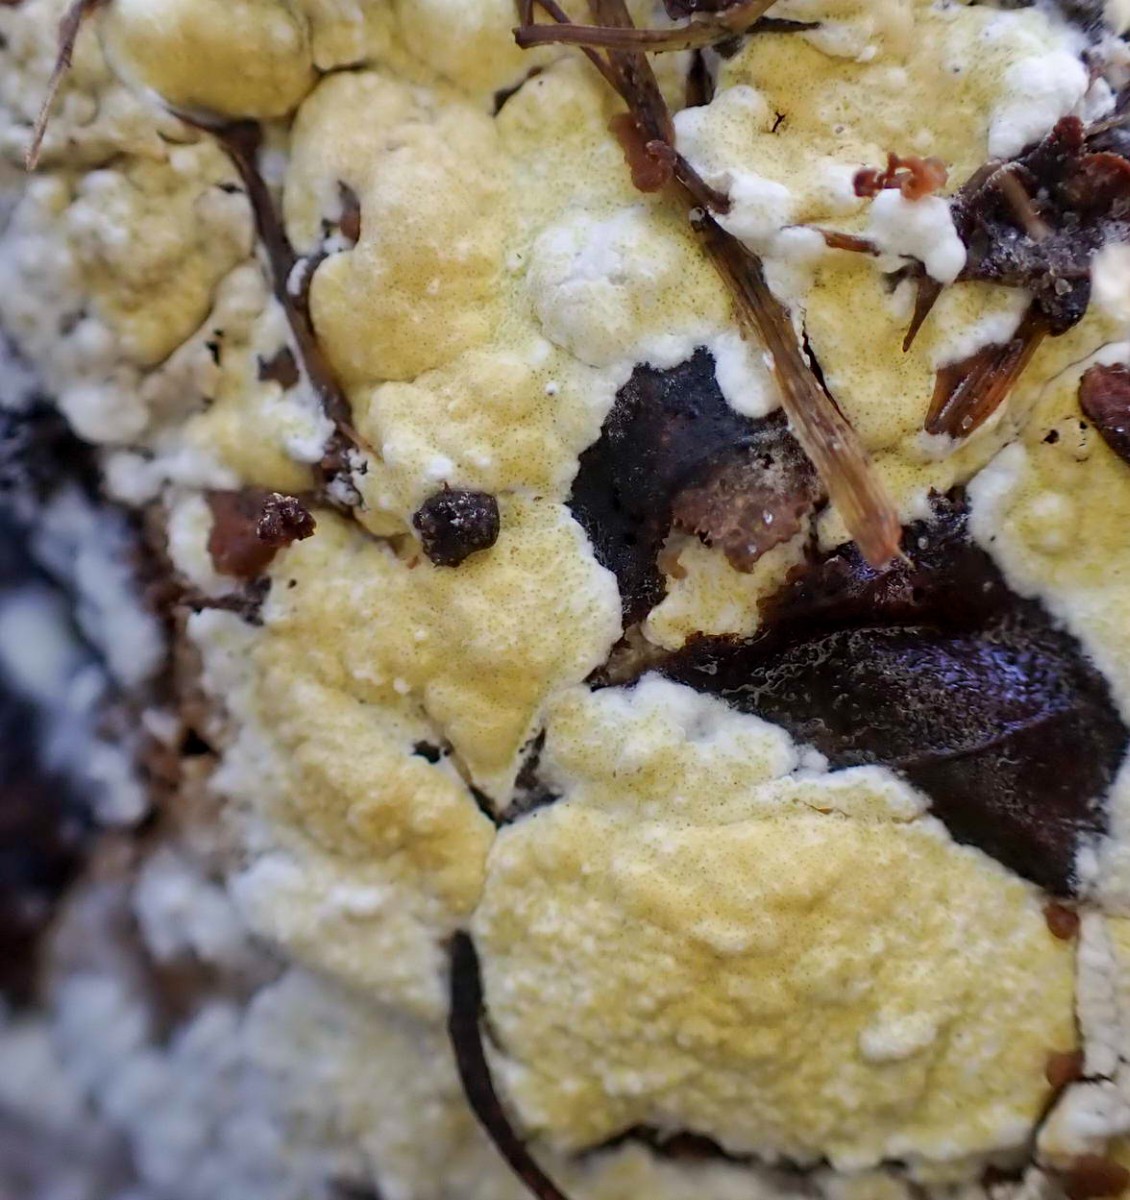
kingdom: Fungi
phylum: Ascomycota
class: Sordariomycetes
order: Hypocreales
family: Hypocreaceae
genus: Trichoderma
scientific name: Trichoderma pulvinatum
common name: snyltende kødkerne
